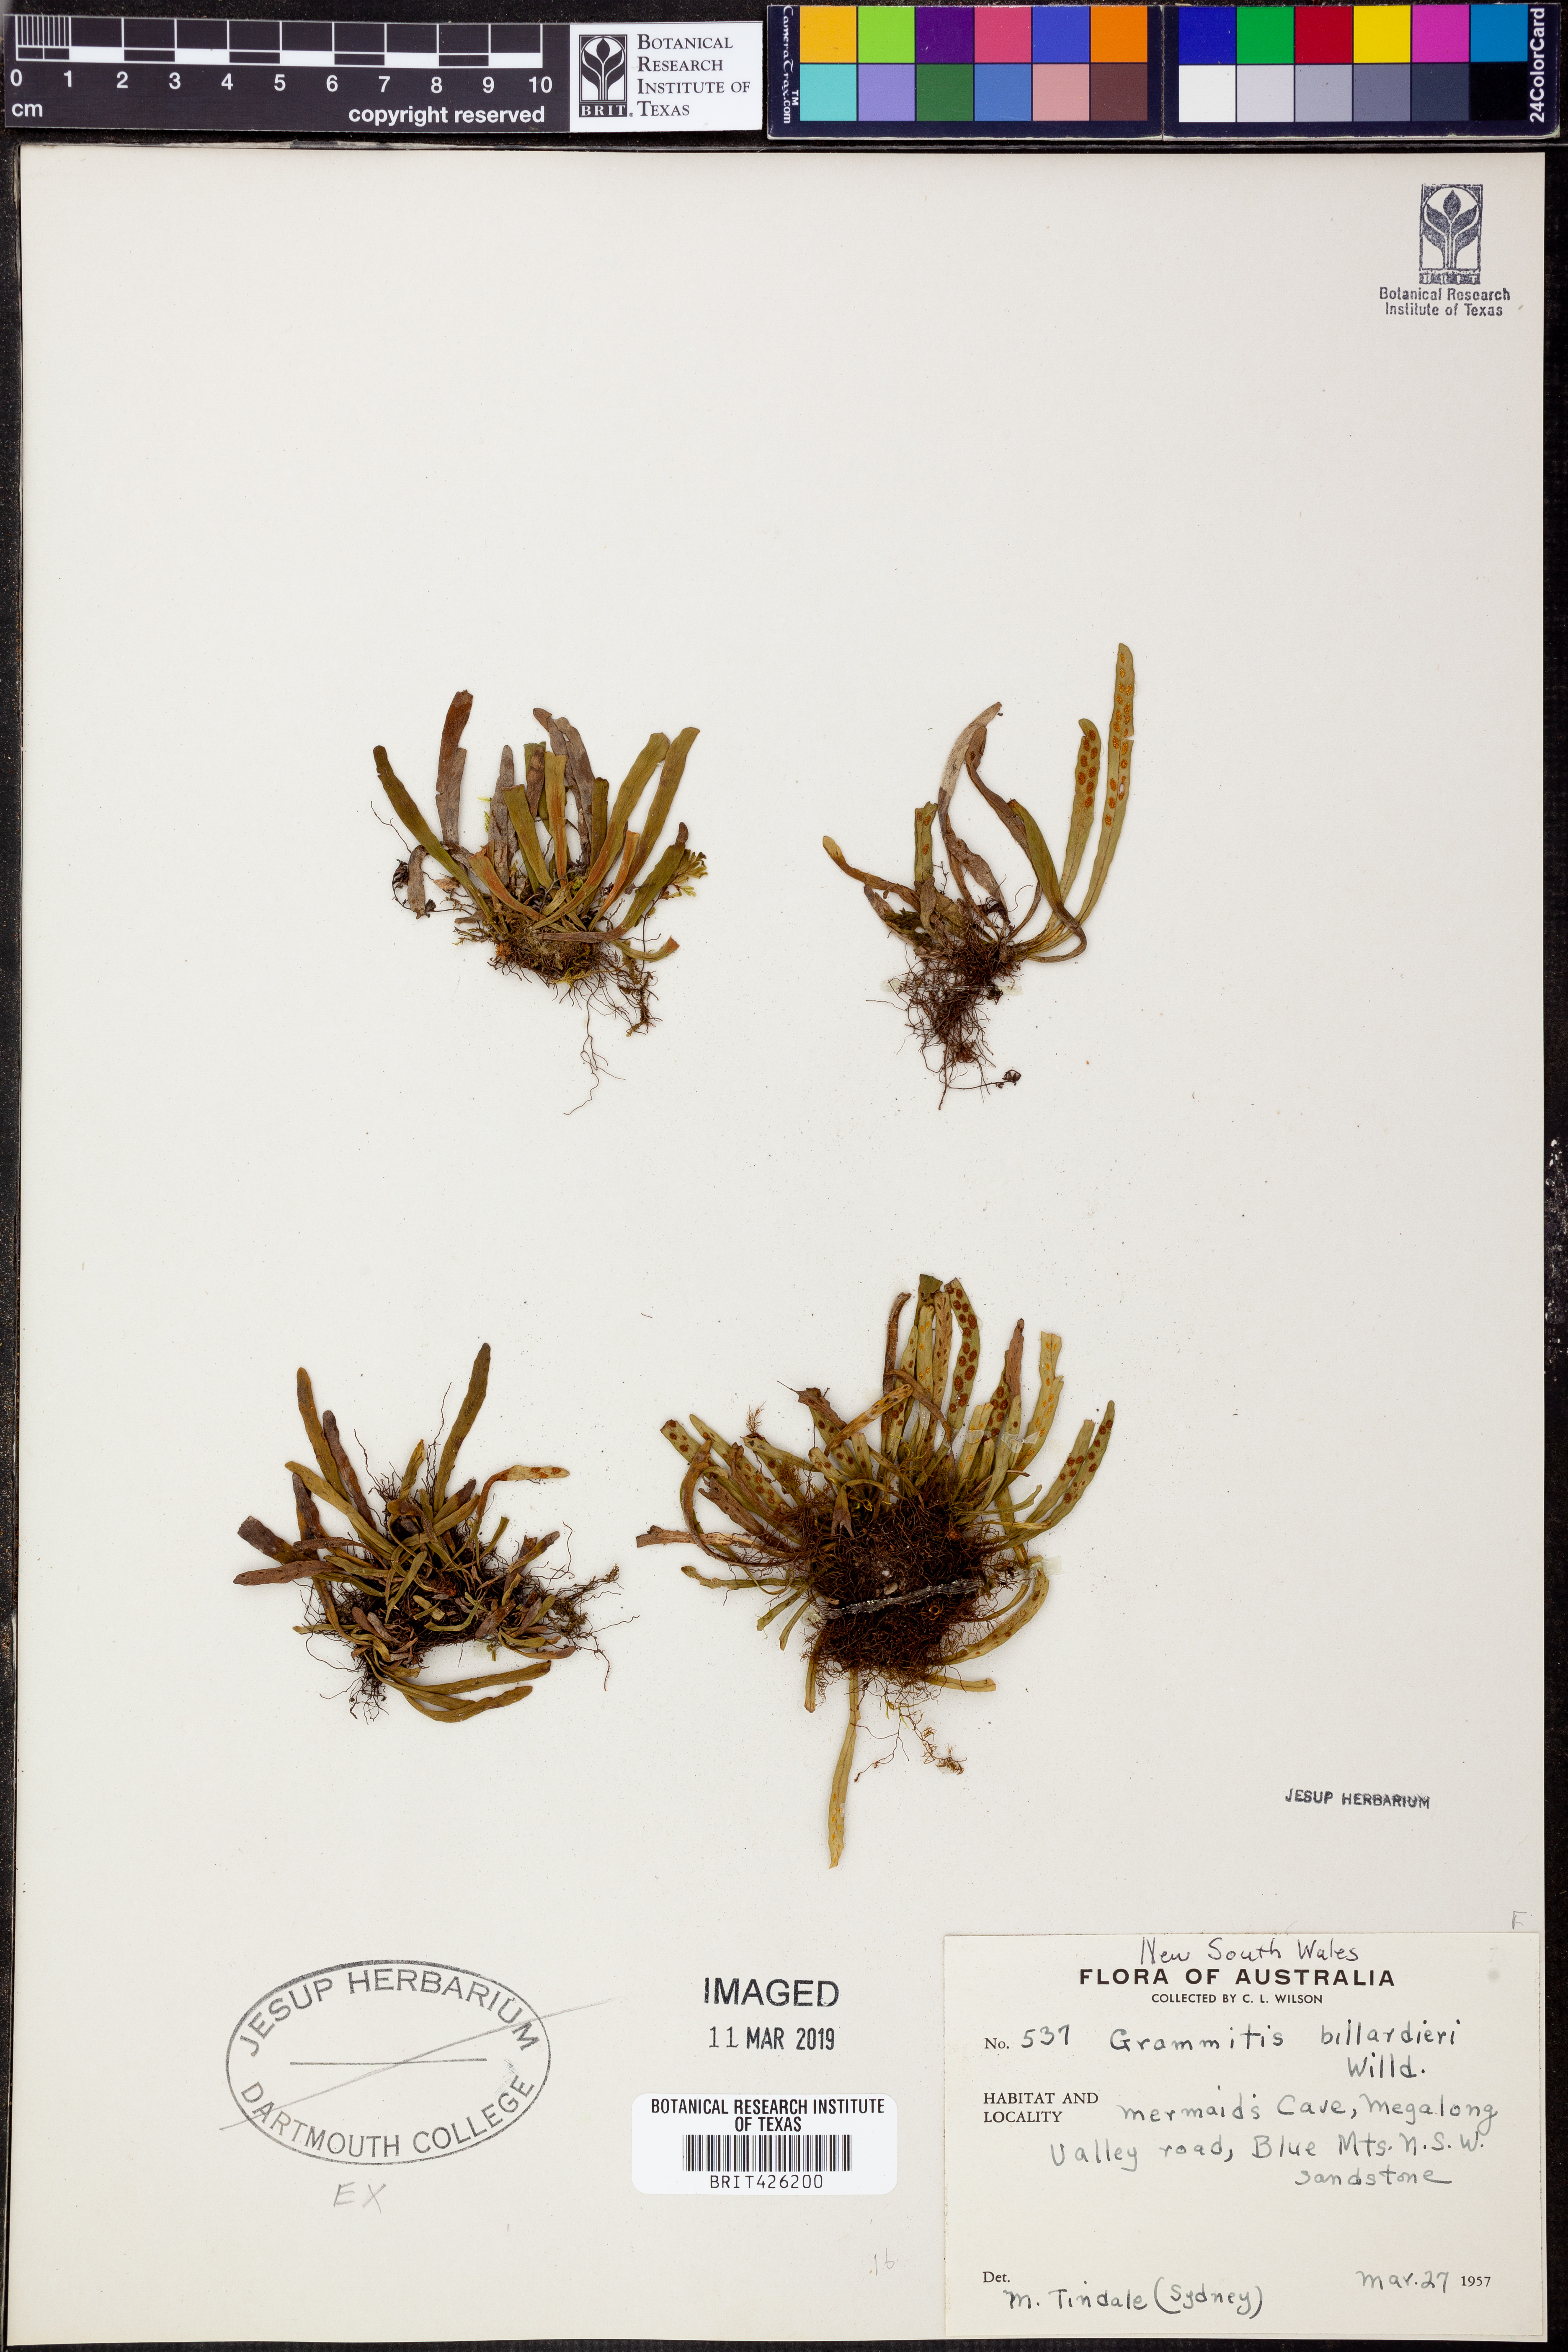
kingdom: Plantae
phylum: Tracheophyta
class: Polypodiopsida
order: Polypodiales
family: Polypodiaceae
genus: Notogrammitis
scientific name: Notogrammitis billardierei
